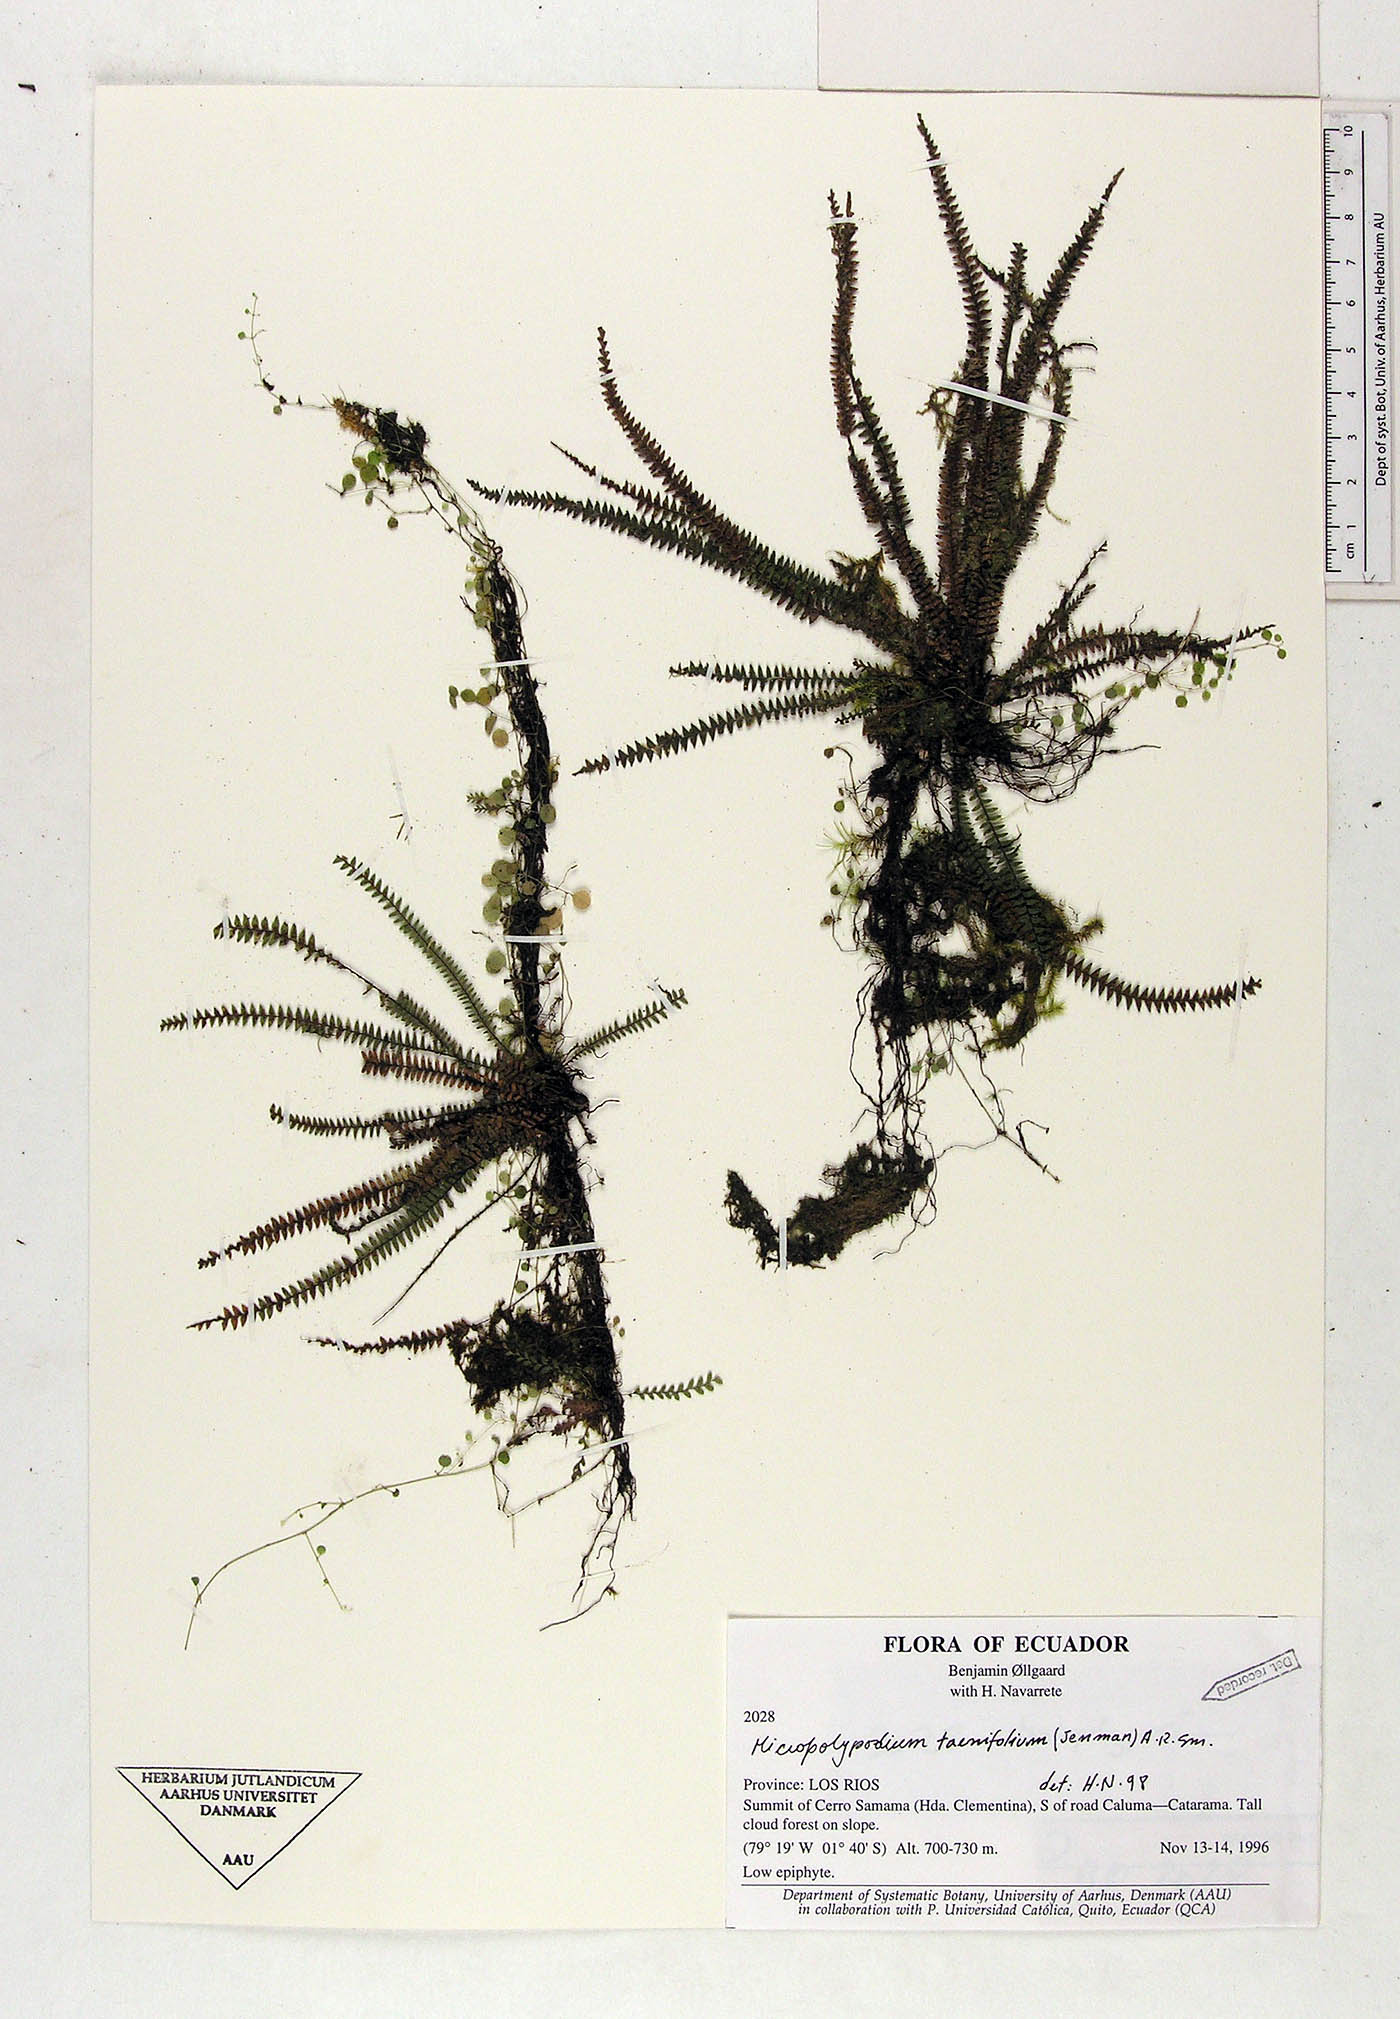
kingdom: Plantae
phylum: Tracheophyta
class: Polypodiopsida
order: Polypodiales
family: Polypodiaceae
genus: Moranopteris
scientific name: Moranopteris taenifolia
